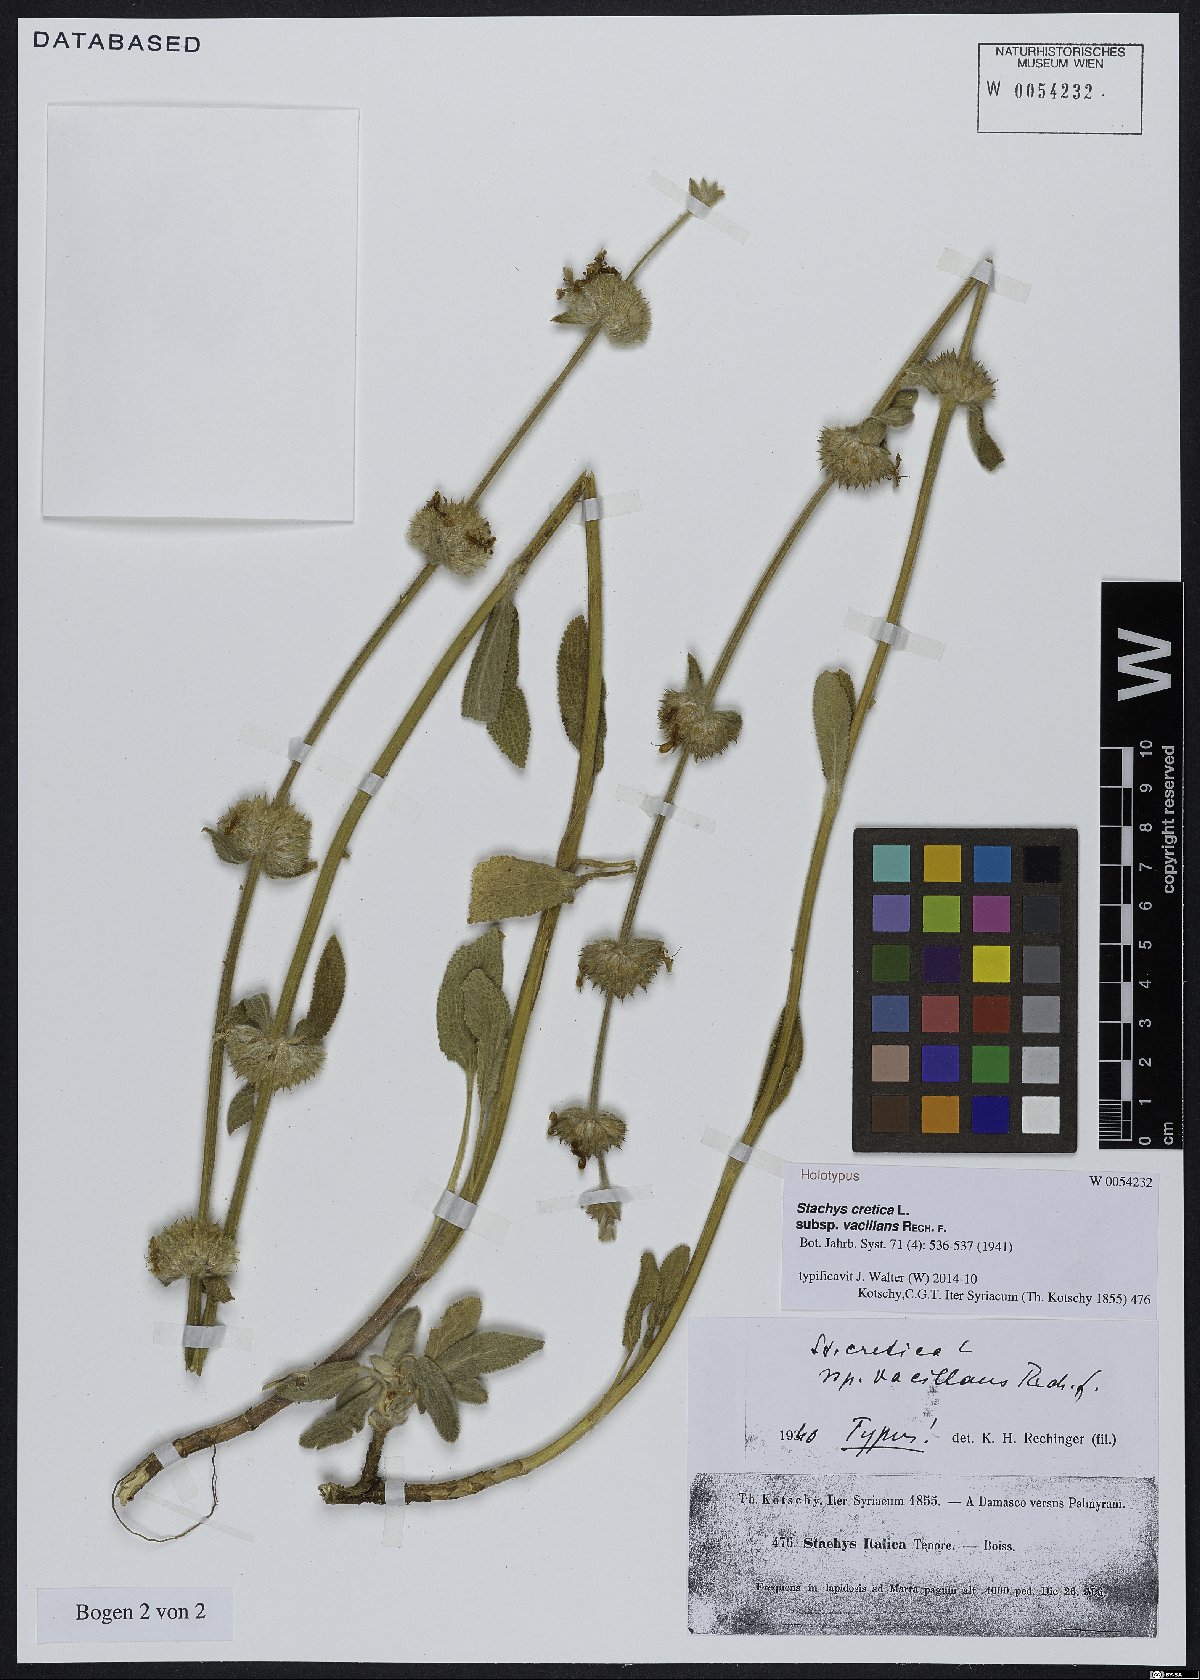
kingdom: Plantae
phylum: Tracheophyta
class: Magnoliopsida
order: Lamiales
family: Lamiaceae
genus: Stachys
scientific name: Stachys cretica
